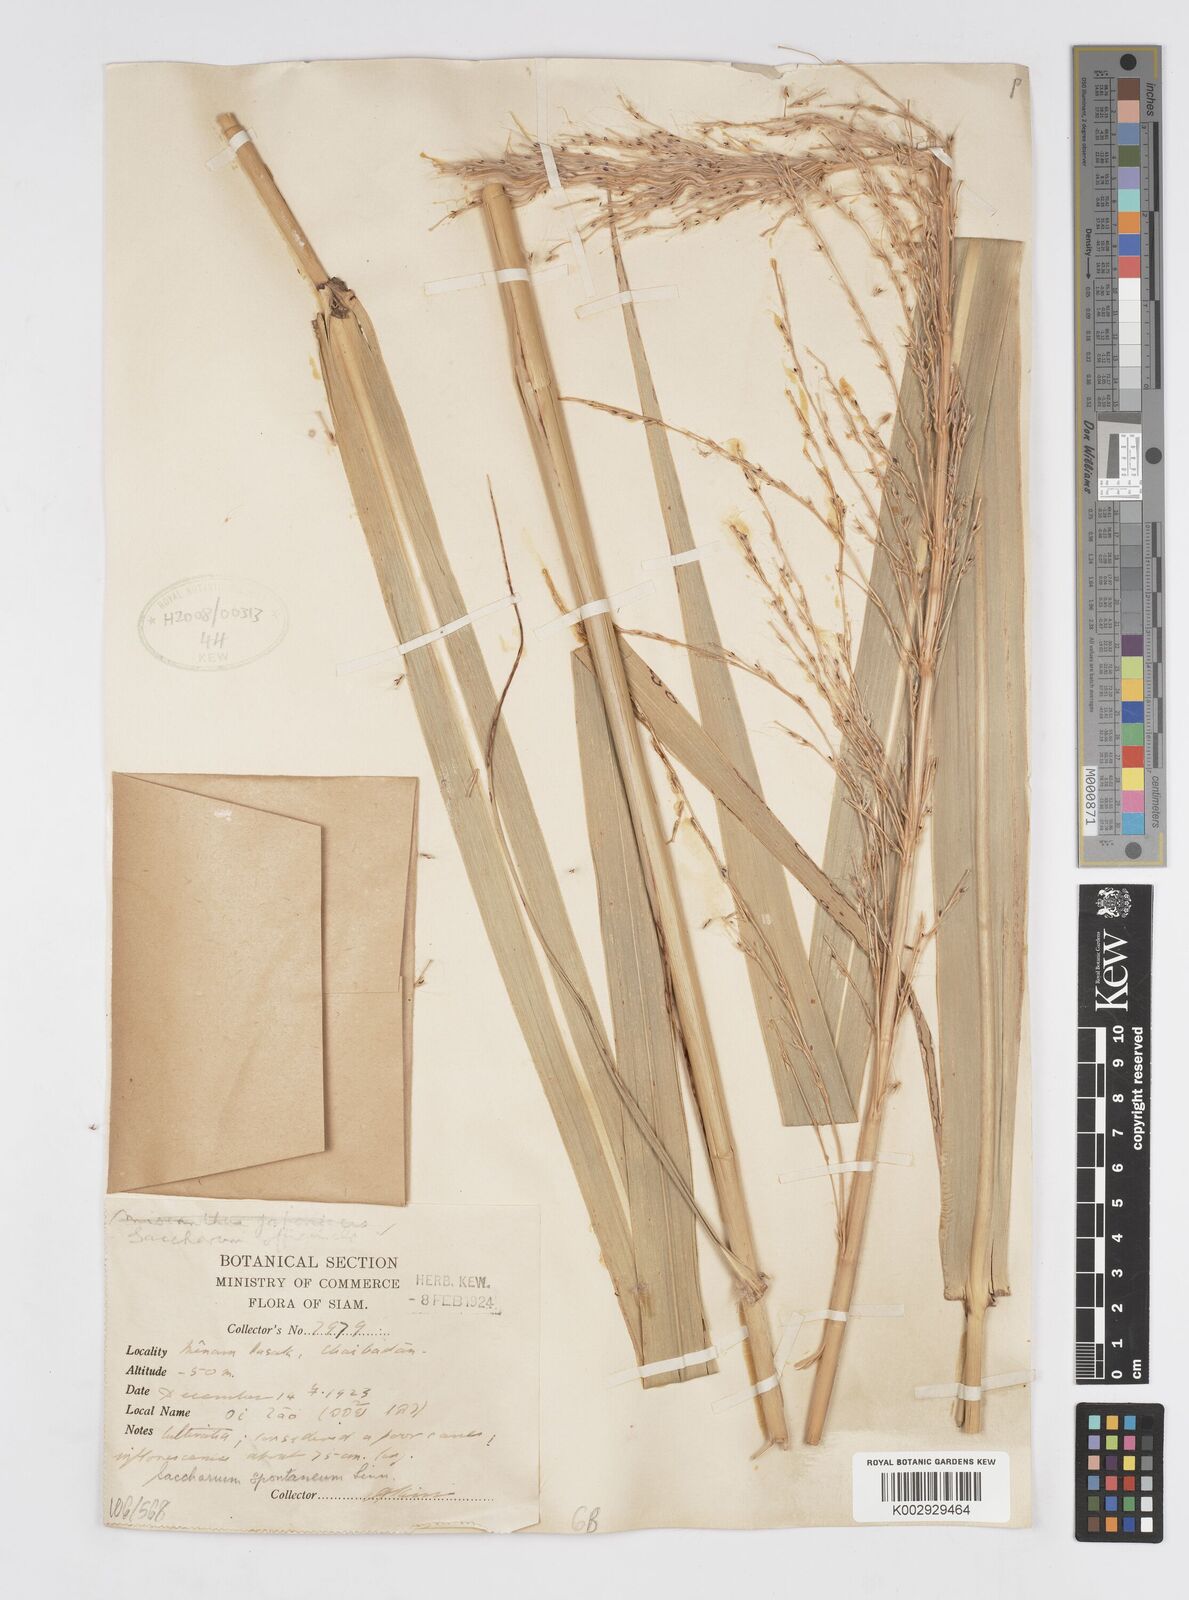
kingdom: Plantae
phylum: Tracheophyta
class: Liliopsida
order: Poales
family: Poaceae
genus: Saccharum
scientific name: Saccharum spontaneum
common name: Wild sugarcane
